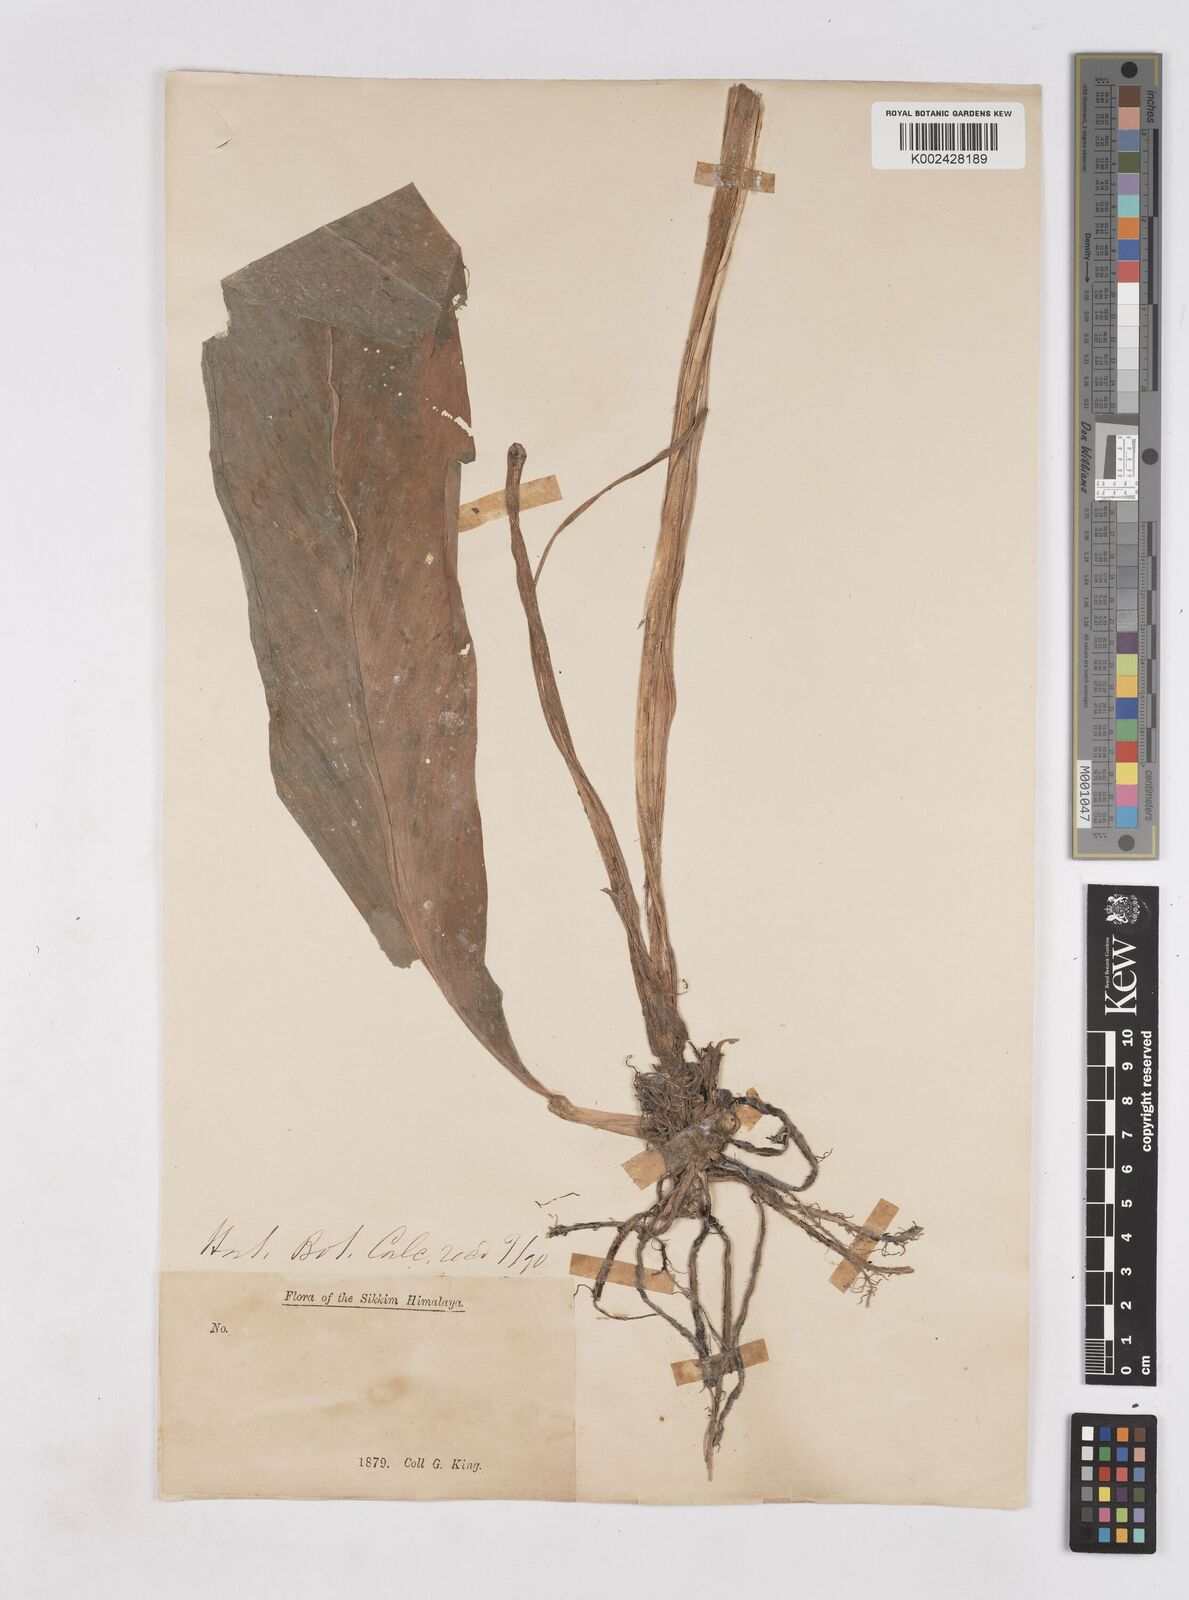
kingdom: Plantae
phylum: Tracheophyta
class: Liliopsida
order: Zingiberales
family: Zingiberaceae
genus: Boesenbergia
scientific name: Boesenbergia longiflora
